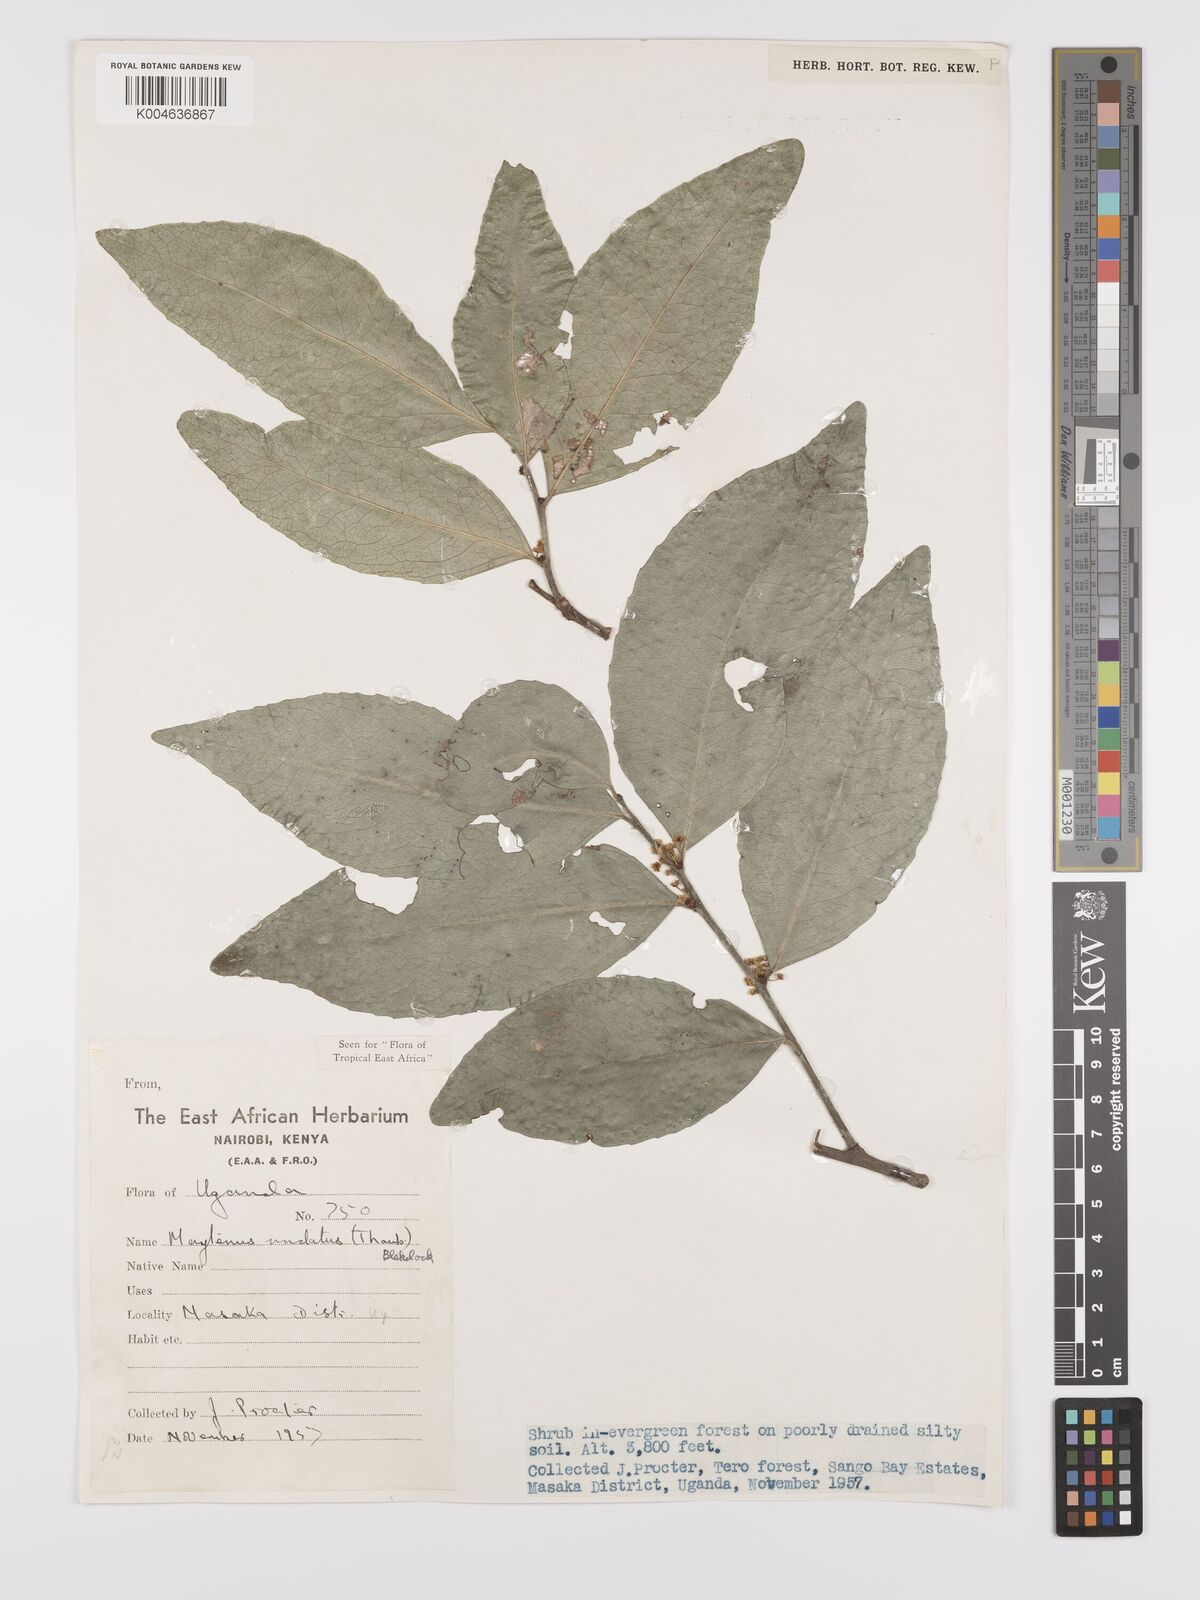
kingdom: Plantae
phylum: Tracheophyta
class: Magnoliopsida
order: Celastrales
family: Celastraceae
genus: Gymnosporia
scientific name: Gymnosporia undata
